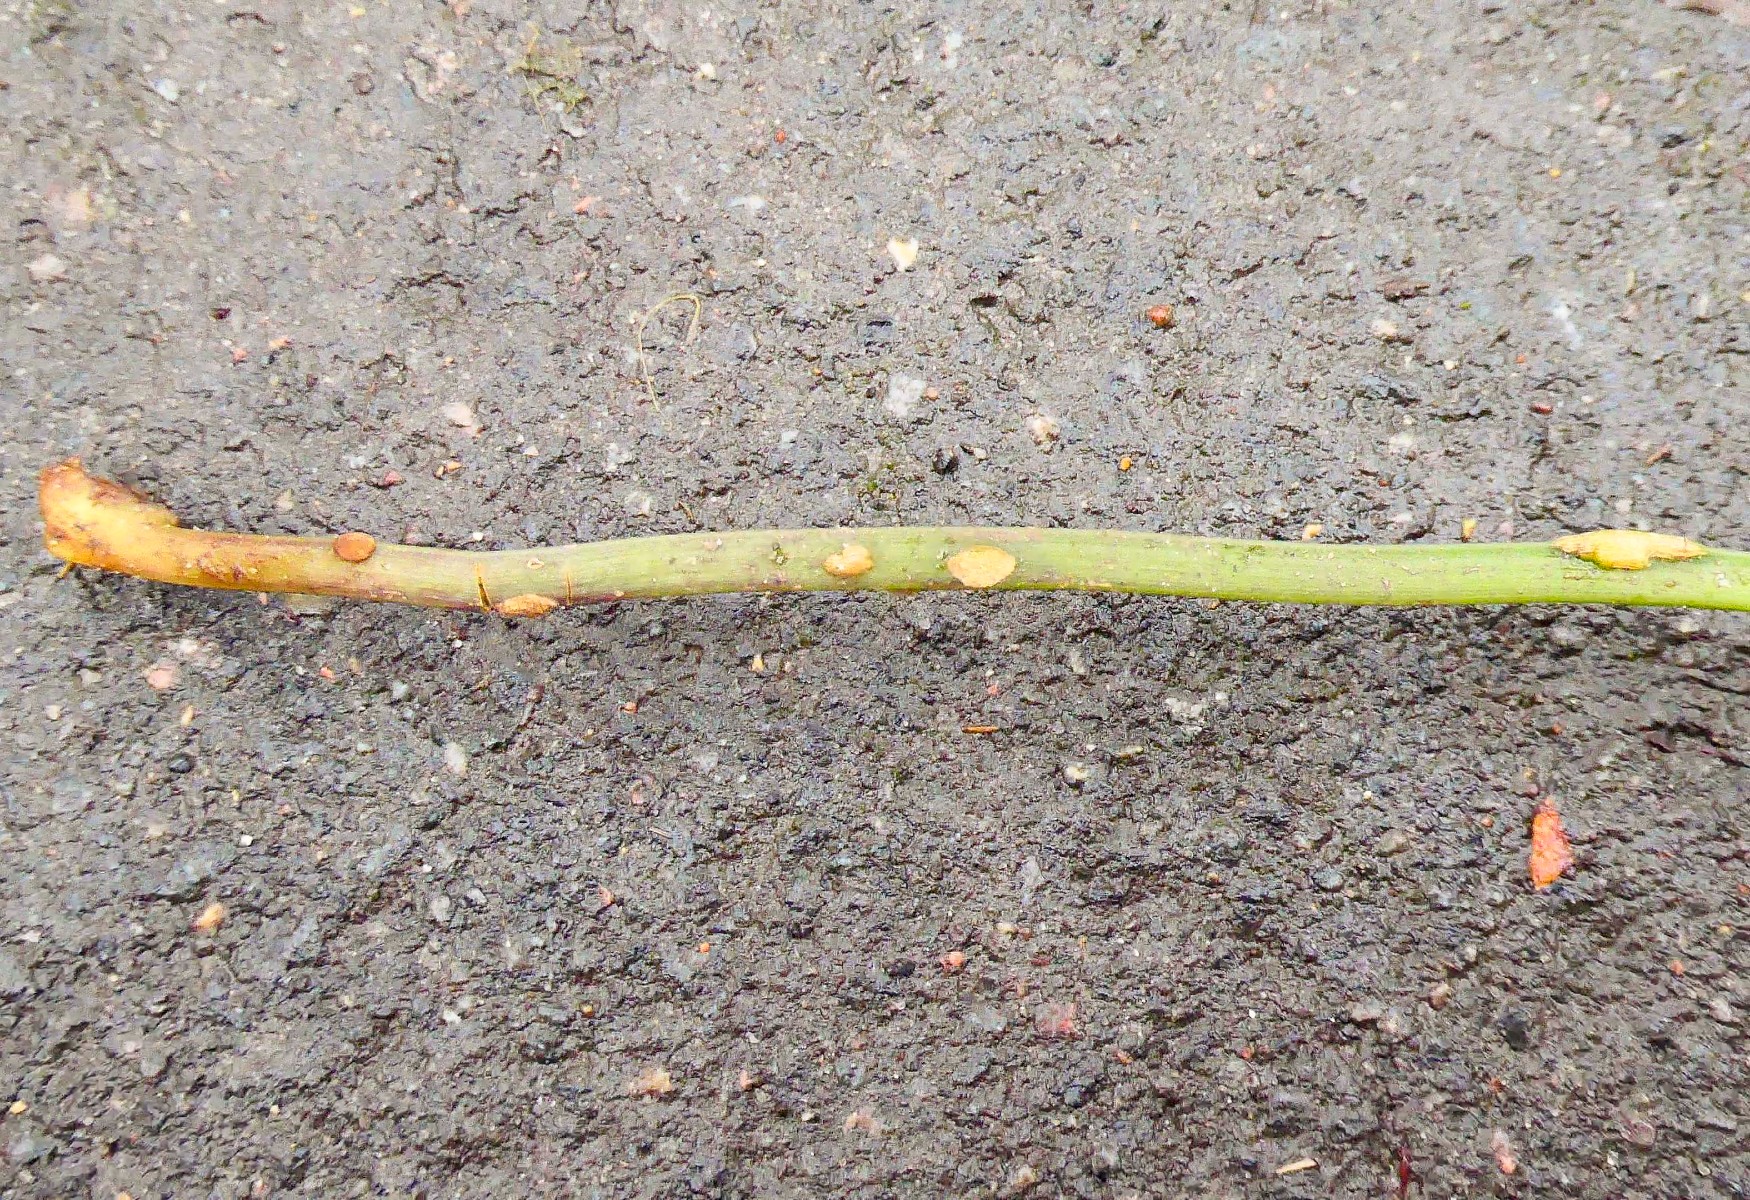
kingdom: Fungi
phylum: Ascomycota
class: Taphrinomycetes
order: Taphrinales
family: Taphrinaceae
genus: Protomyces
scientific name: Protomyces macrosporus
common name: skvalderkål-vablesæk
